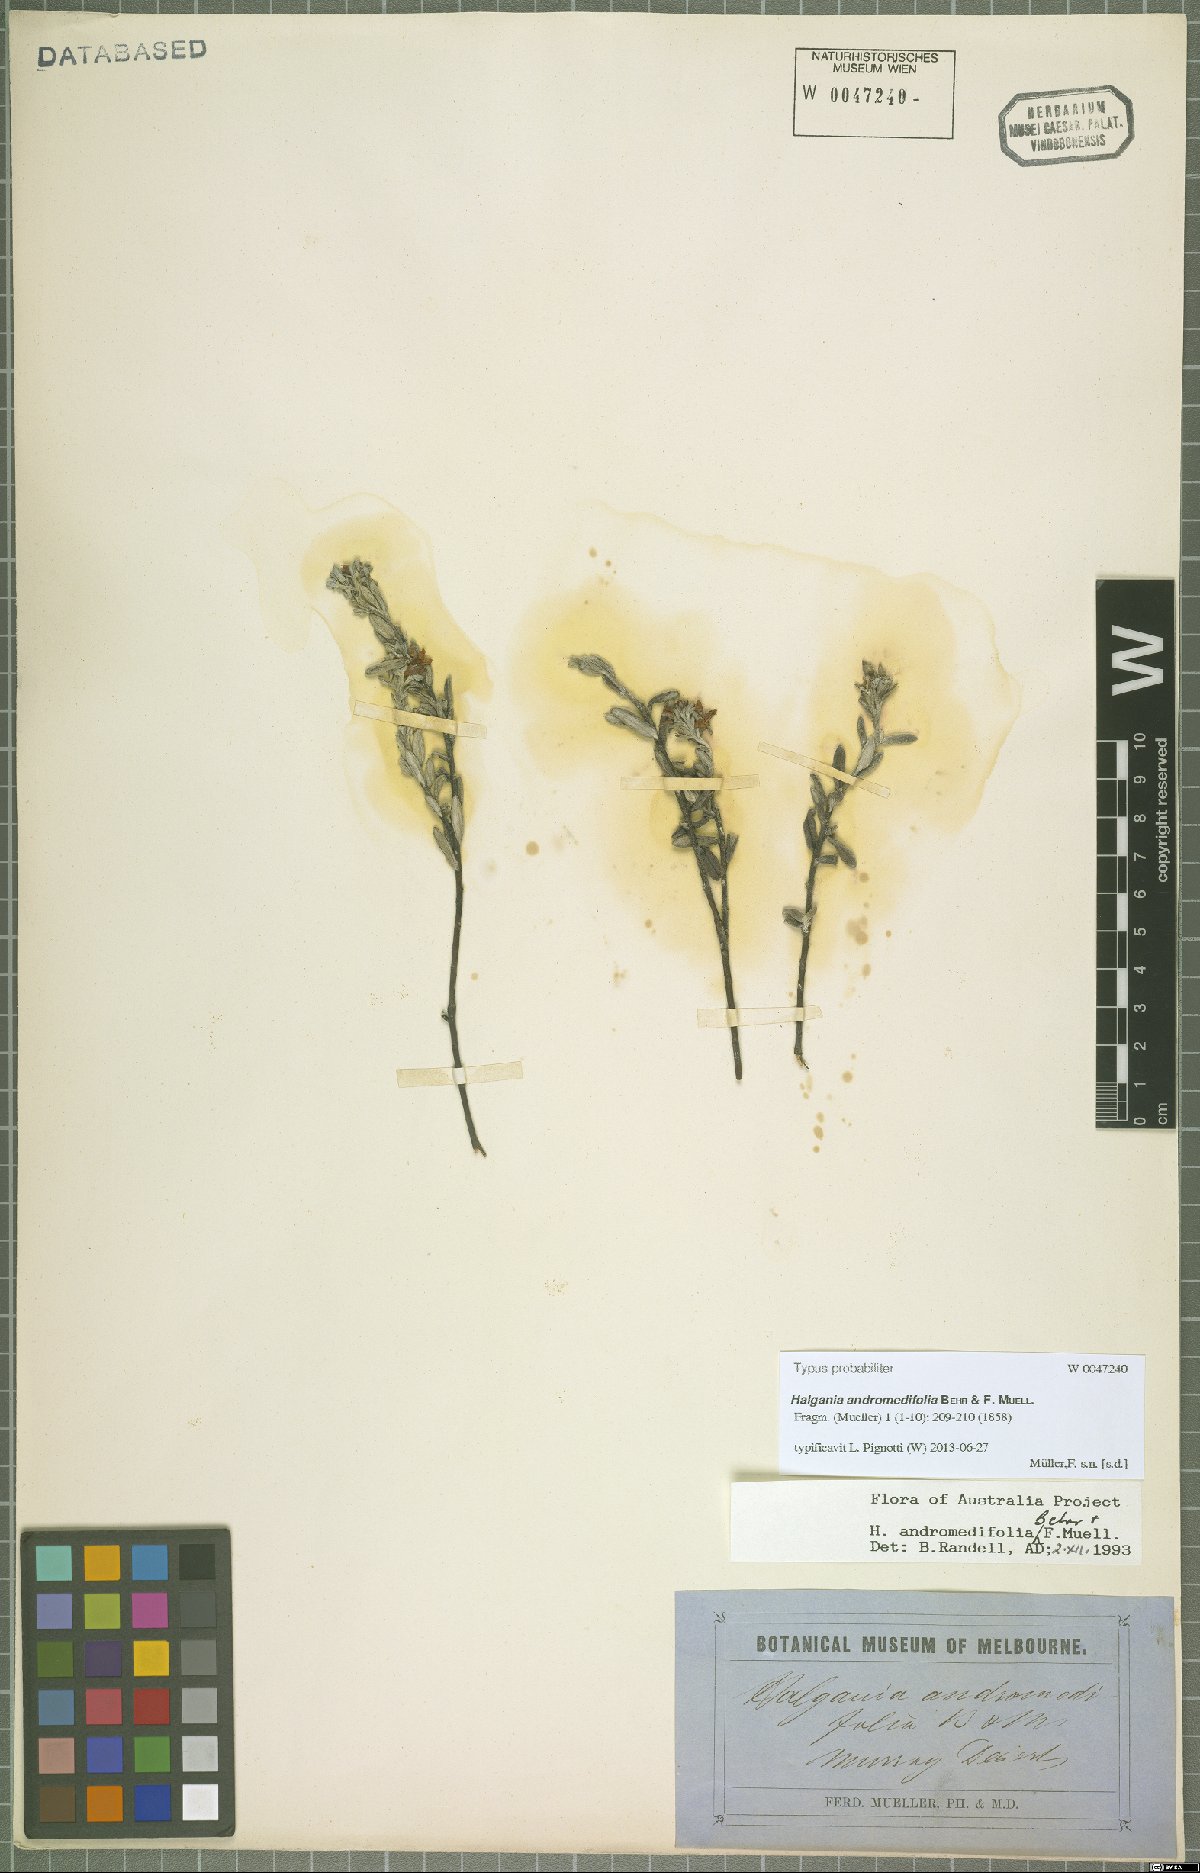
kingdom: Plantae
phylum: Tracheophyta
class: Magnoliopsida
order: Boraginales
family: Ehretiaceae
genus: Halgania
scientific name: Halgania andromedifolia
